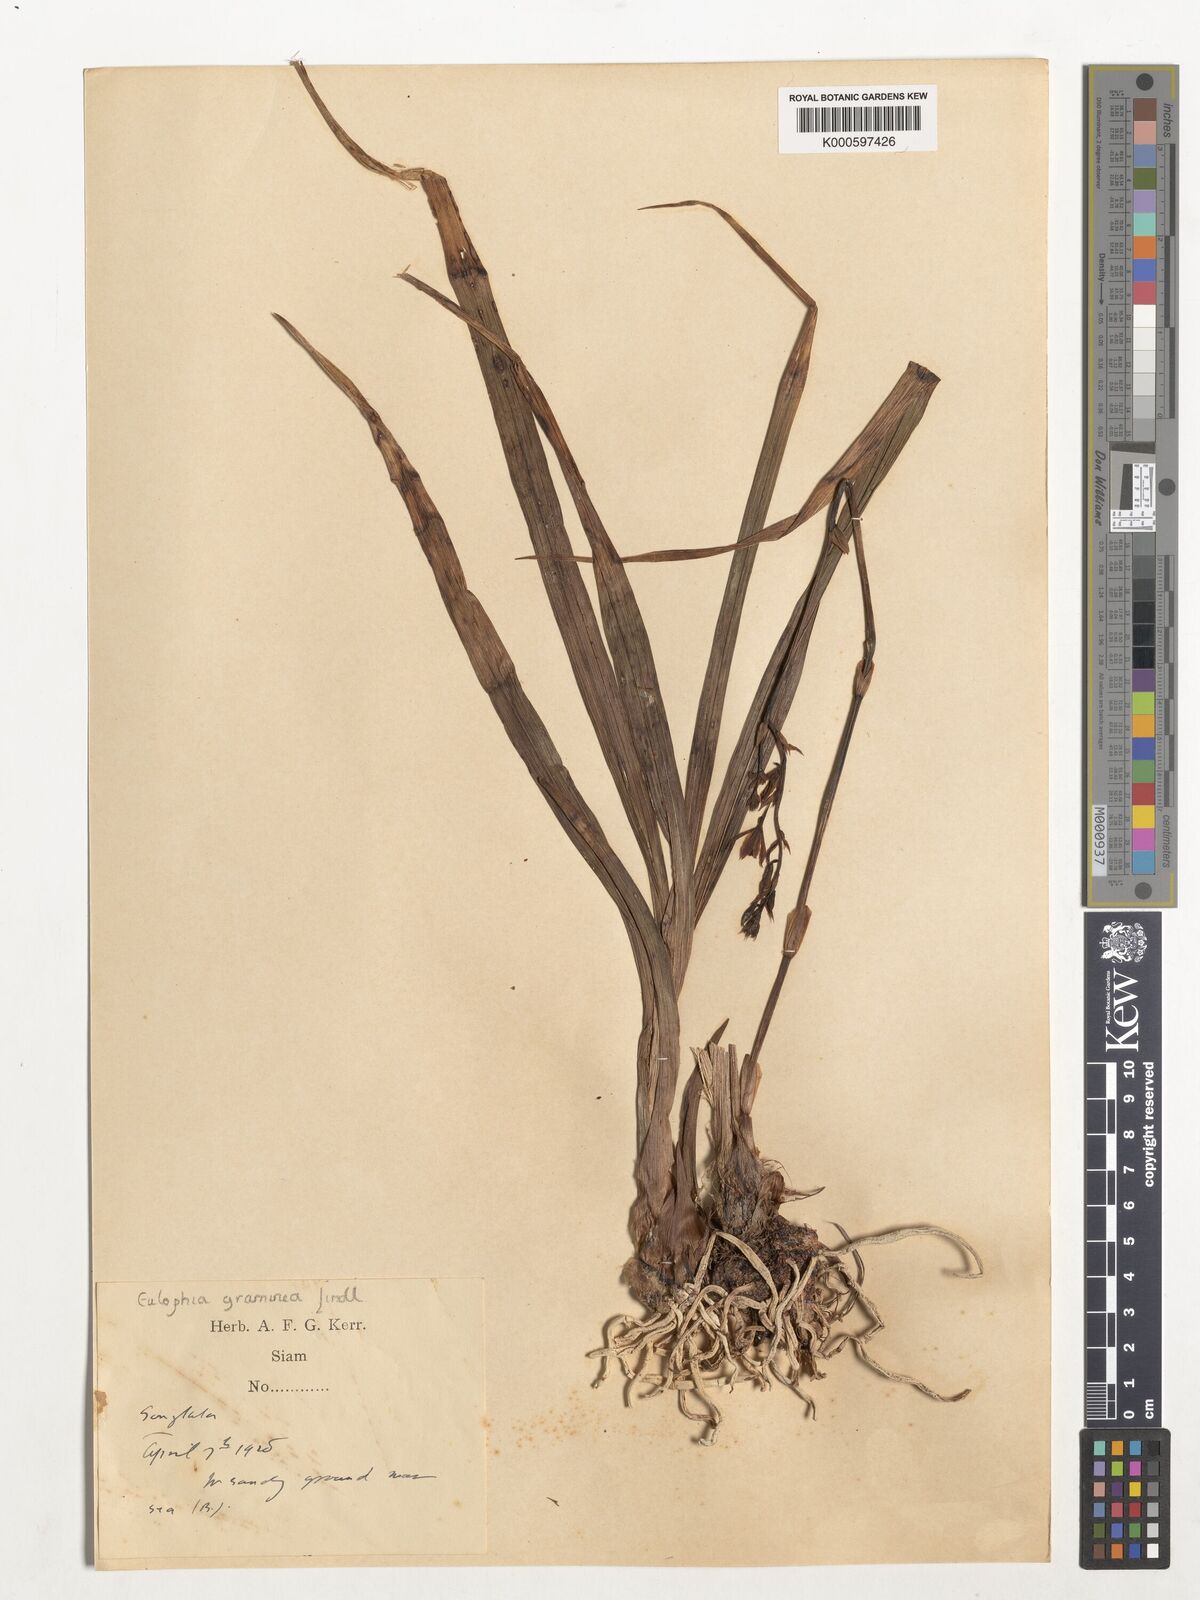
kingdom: Plantae
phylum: Tracheophyta
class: Liliopsida
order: Asparagales
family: Orchidaceae
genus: Eulophia
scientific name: Eulophia graminea
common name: Orchid
